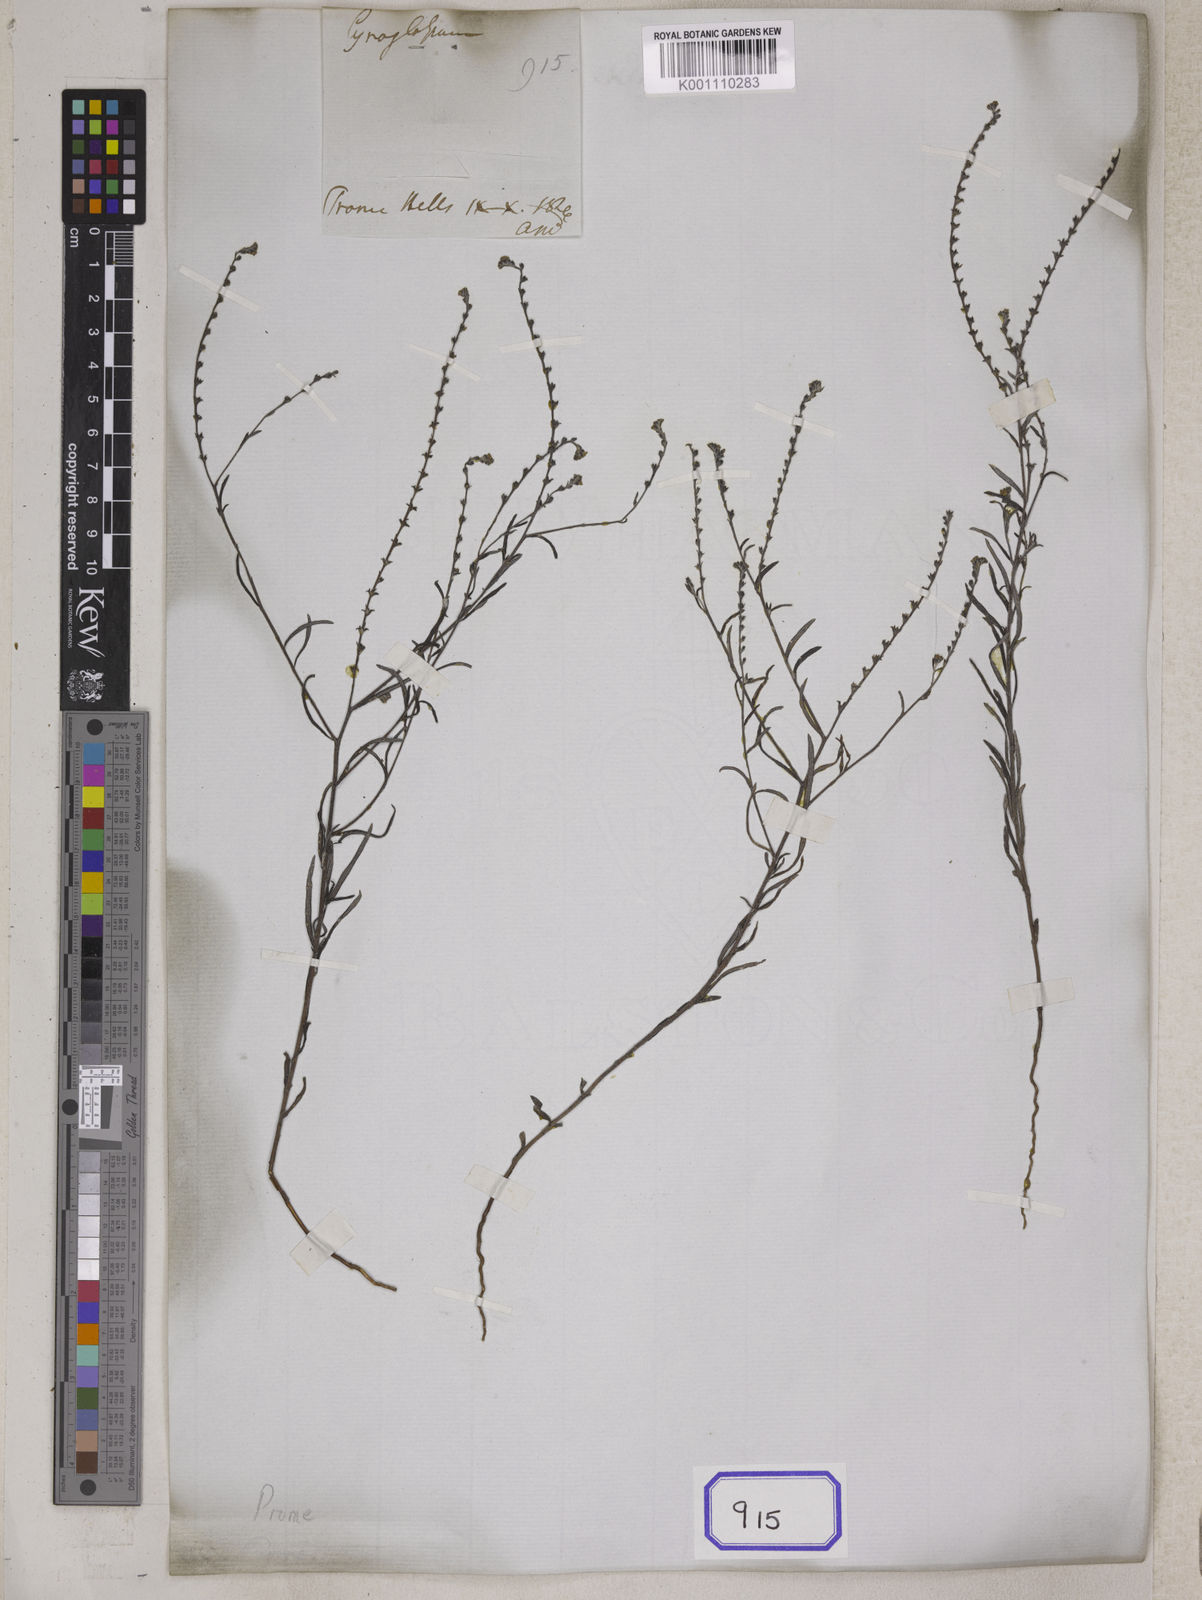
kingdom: Plantae
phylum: Tracheophyta
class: Magnoliopsida
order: Boraginales
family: Heliotropiaceae
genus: Euploca
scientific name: Euploca paniculata
